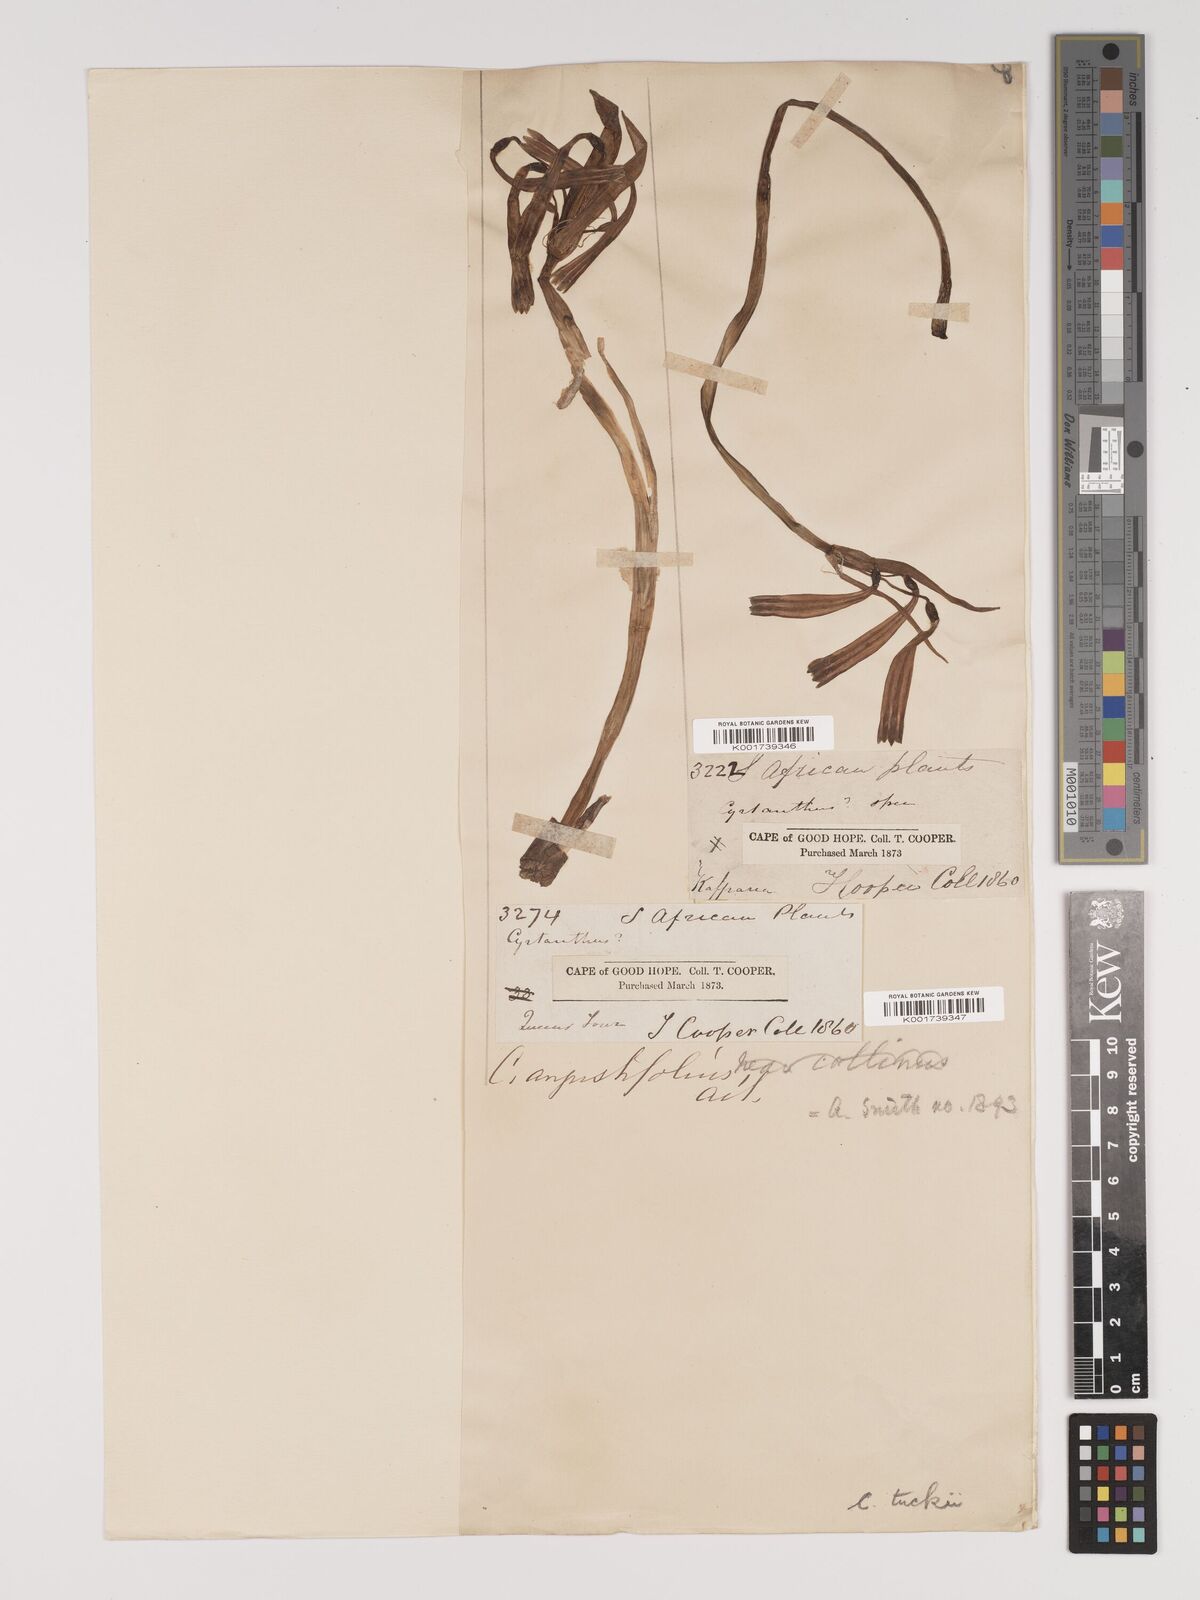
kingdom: Plantae
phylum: Tracheophyta
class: Liliopsida
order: Asparagales
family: Amaryllidaceae
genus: Cyrtanthus
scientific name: Cyrtanthus tuckii
